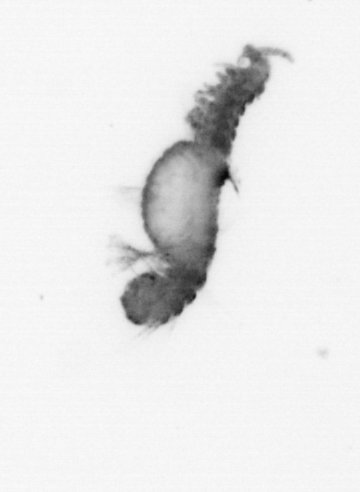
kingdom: Animalia
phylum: Annelida
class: Polychaeta
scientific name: Polychaeta
